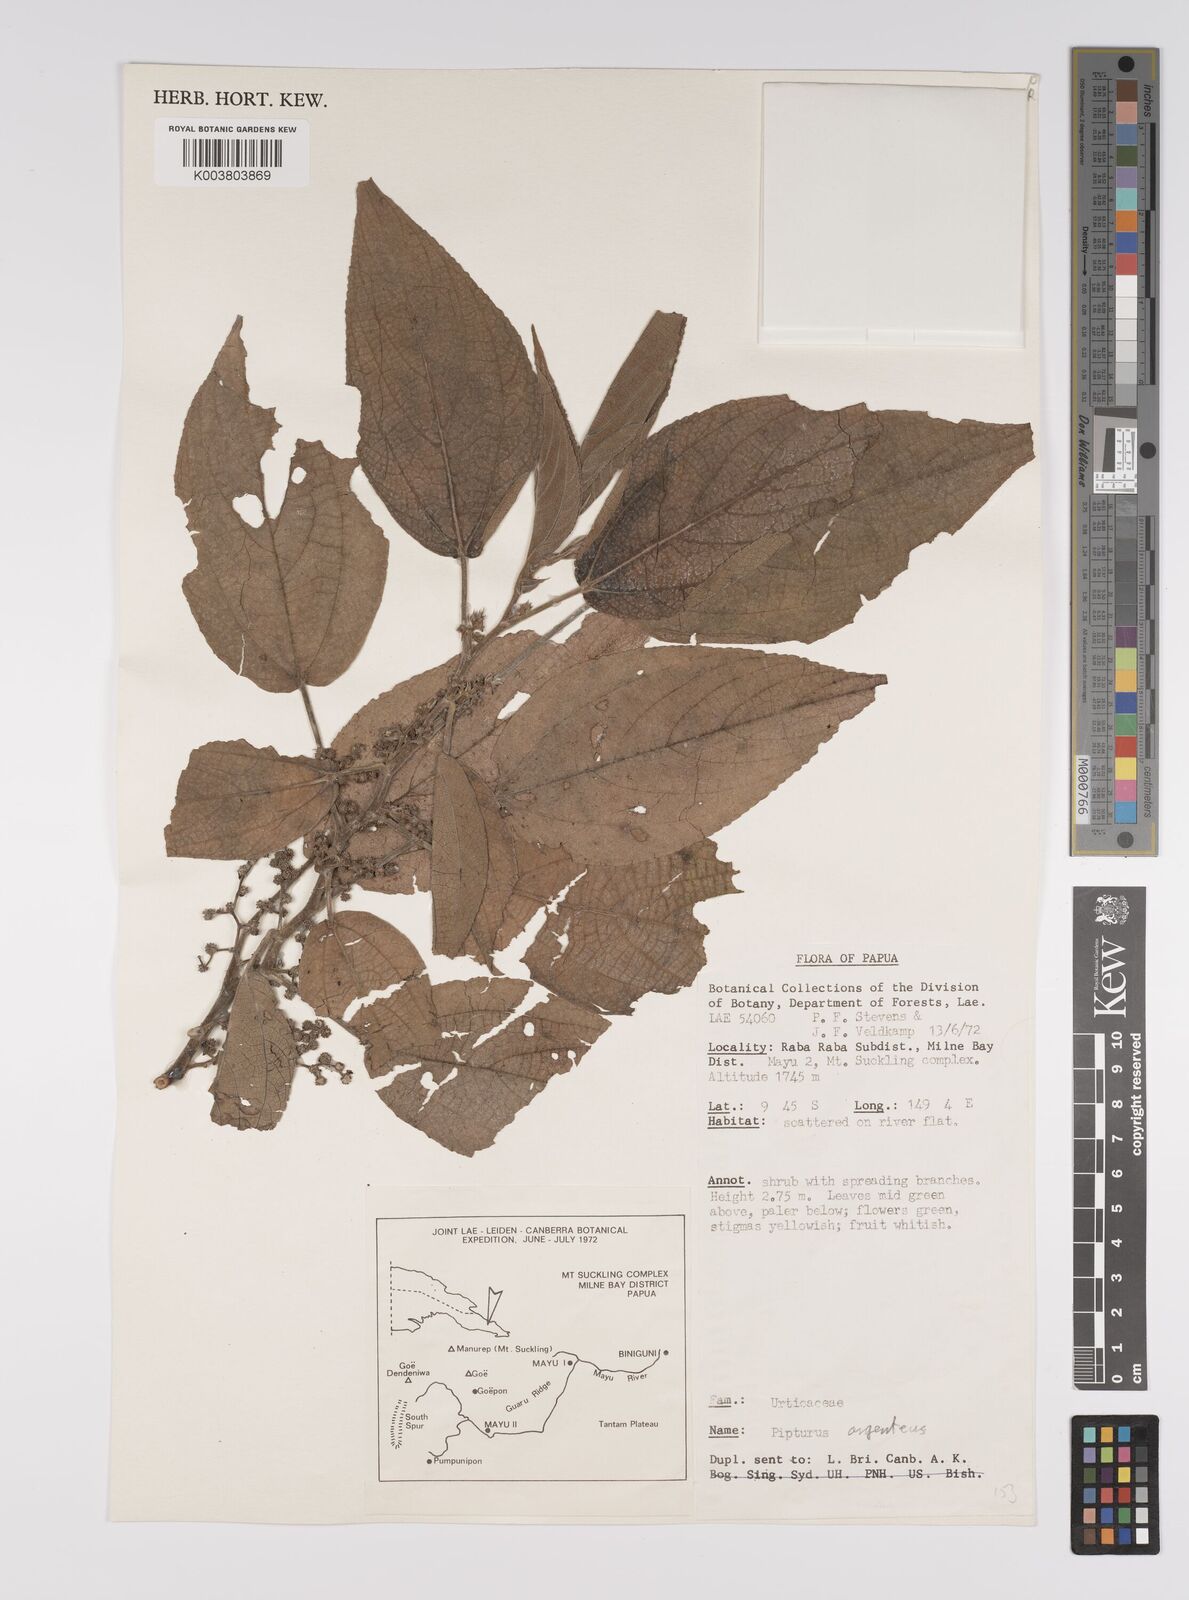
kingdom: Plantae
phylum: Tracheophyta
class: Magnoliopsida
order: Rosales
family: Urticaceae
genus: Pipturus
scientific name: Pipturus argenteus
